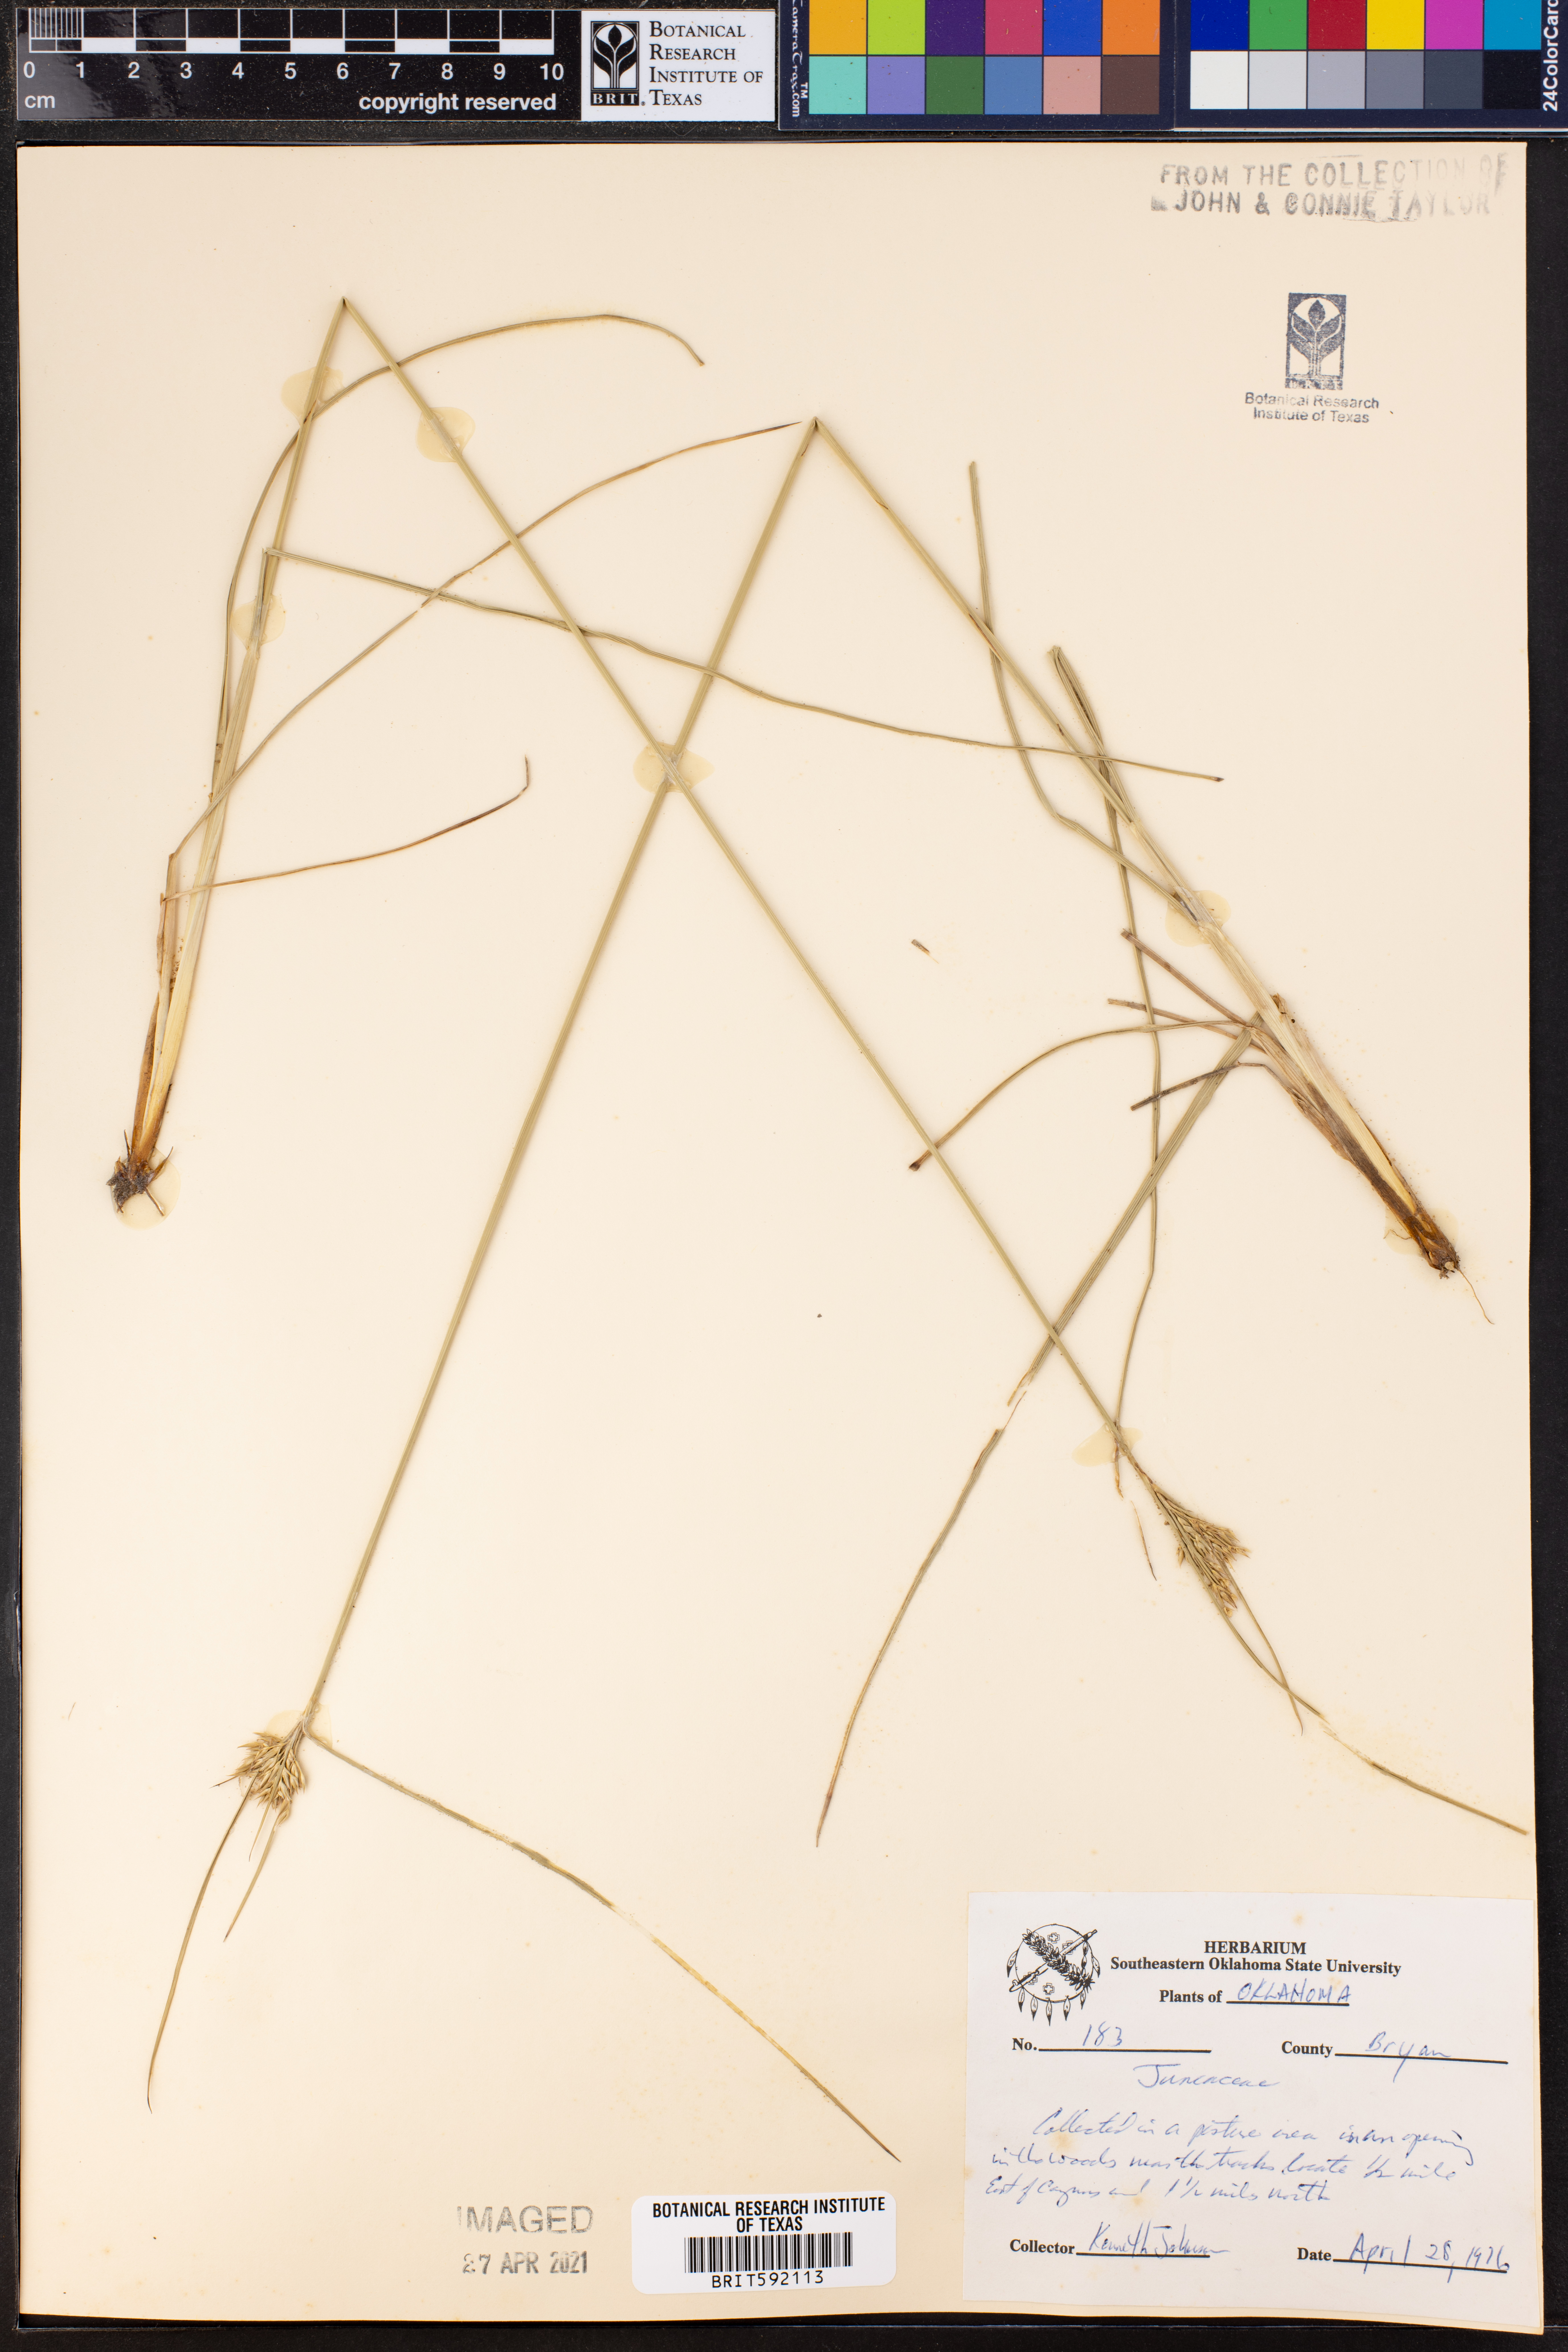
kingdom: Plantae
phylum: Tracheophyta
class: Liliopsida
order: Poales
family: Juncaceae
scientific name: Juncaceae
